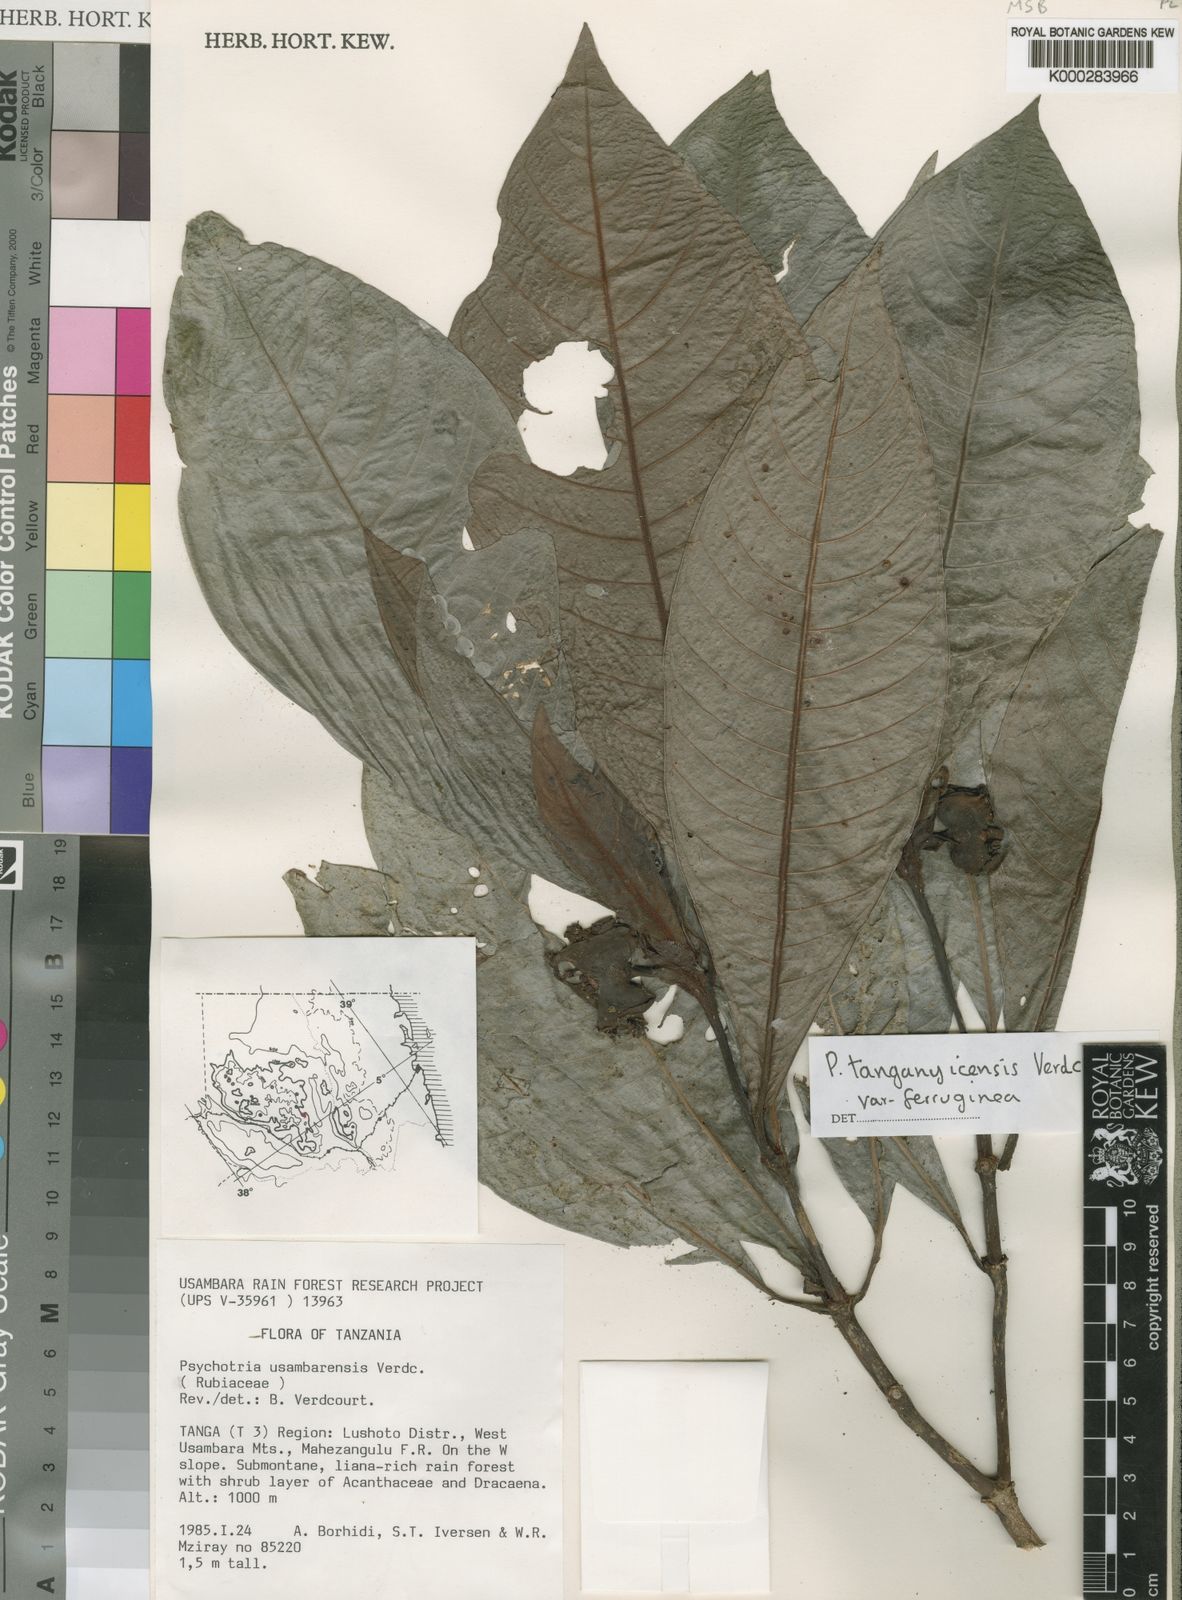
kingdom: Plantae
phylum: Tracheophyta
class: Magnoliopsida
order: Gentianales
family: Rubiaceae
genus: Psychotria
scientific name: Psychotria tanganyicensis
